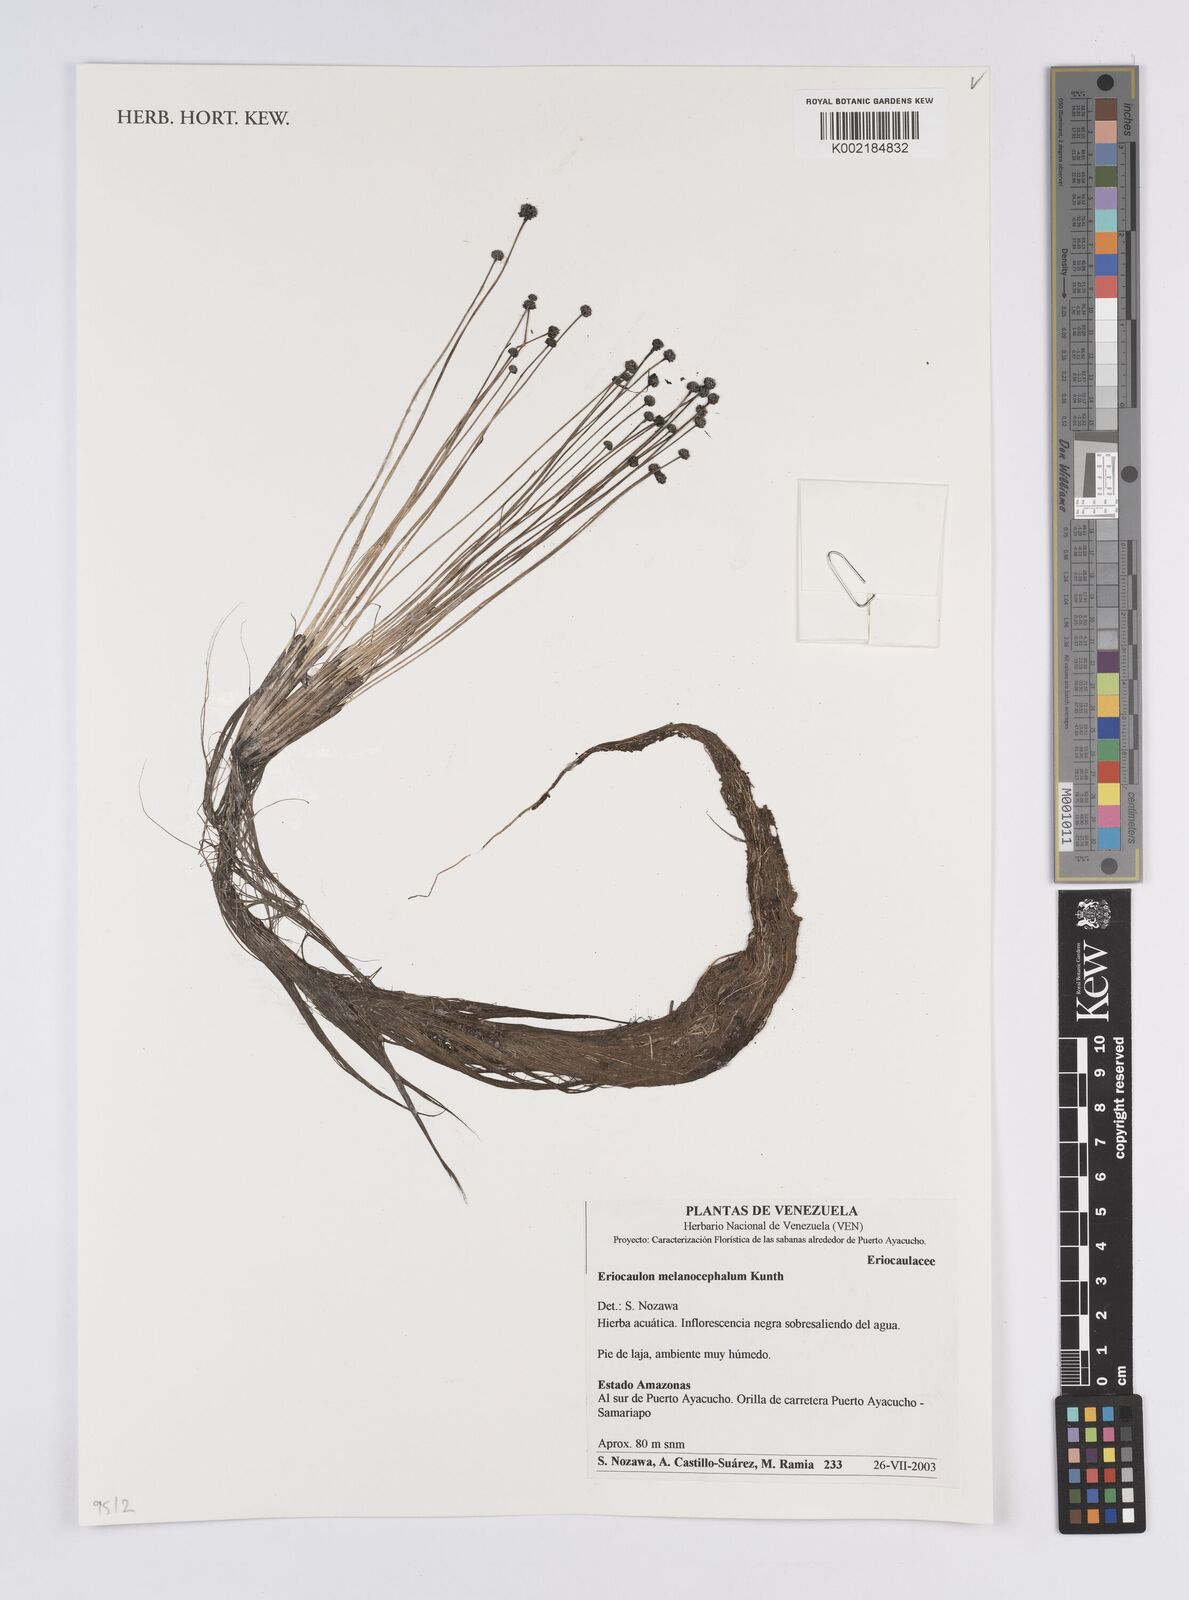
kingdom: Plantae
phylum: Tracheophyta
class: Liliopsida
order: Poales
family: Eriocaulaceae
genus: Eriocaulon
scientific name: Eriocaulon melanocephalum
